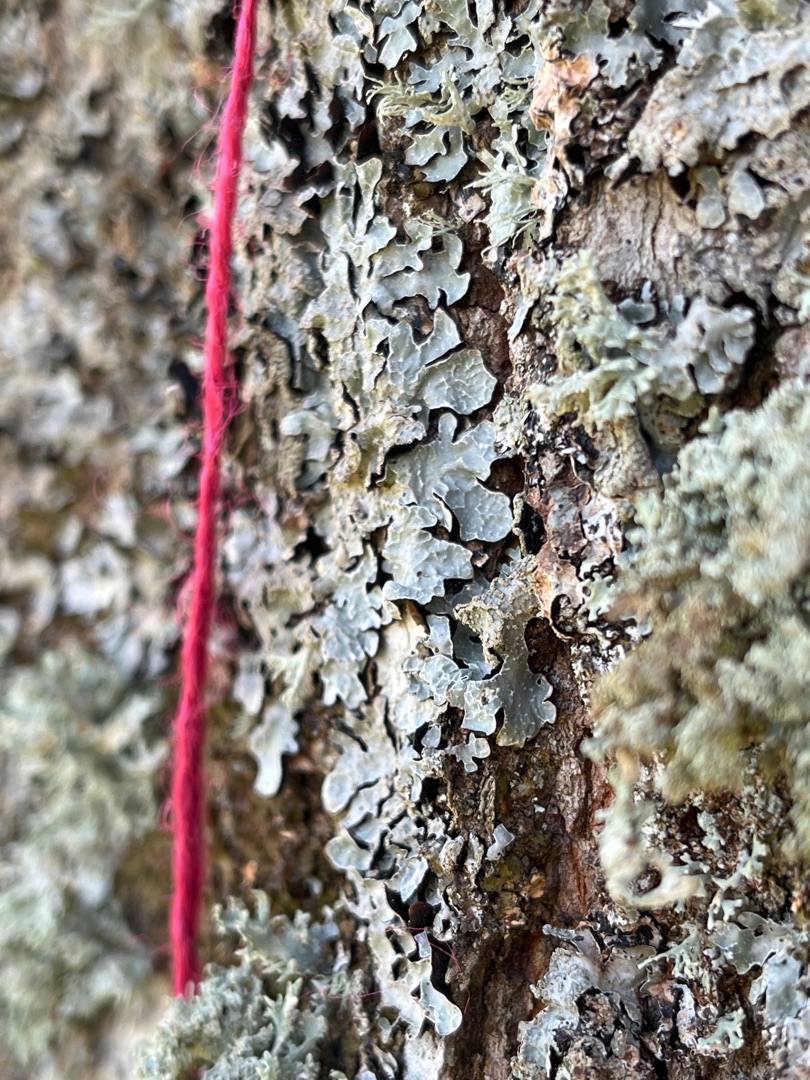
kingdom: Fungi
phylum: Ascomycota
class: Lecanoromycetes
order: Lecanorales
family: Parmeliaceae
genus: Parmelia
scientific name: Parmelia sulcata
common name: Rynket skållav
